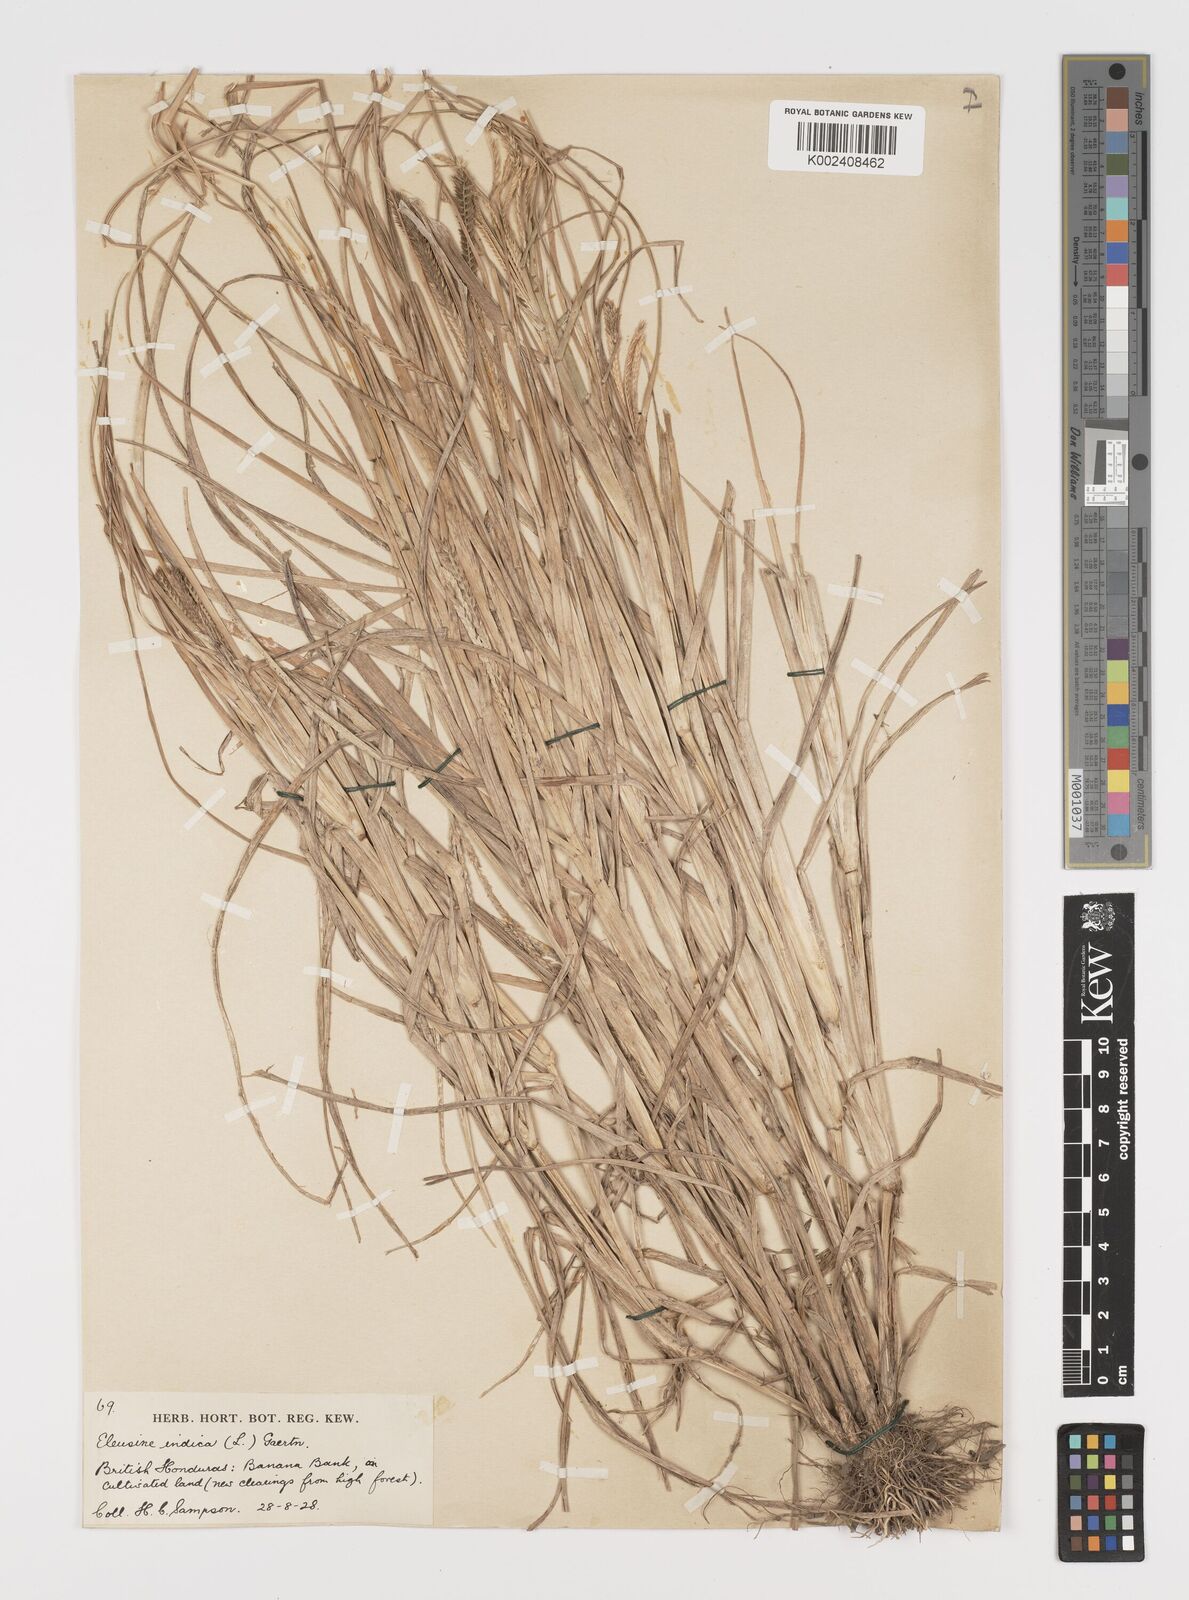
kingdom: Plantae
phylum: Tracheophyta
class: Liliopsida
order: Poales
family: Poaceae
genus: Eleusine
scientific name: Eleusine indica
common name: Yard-grass
